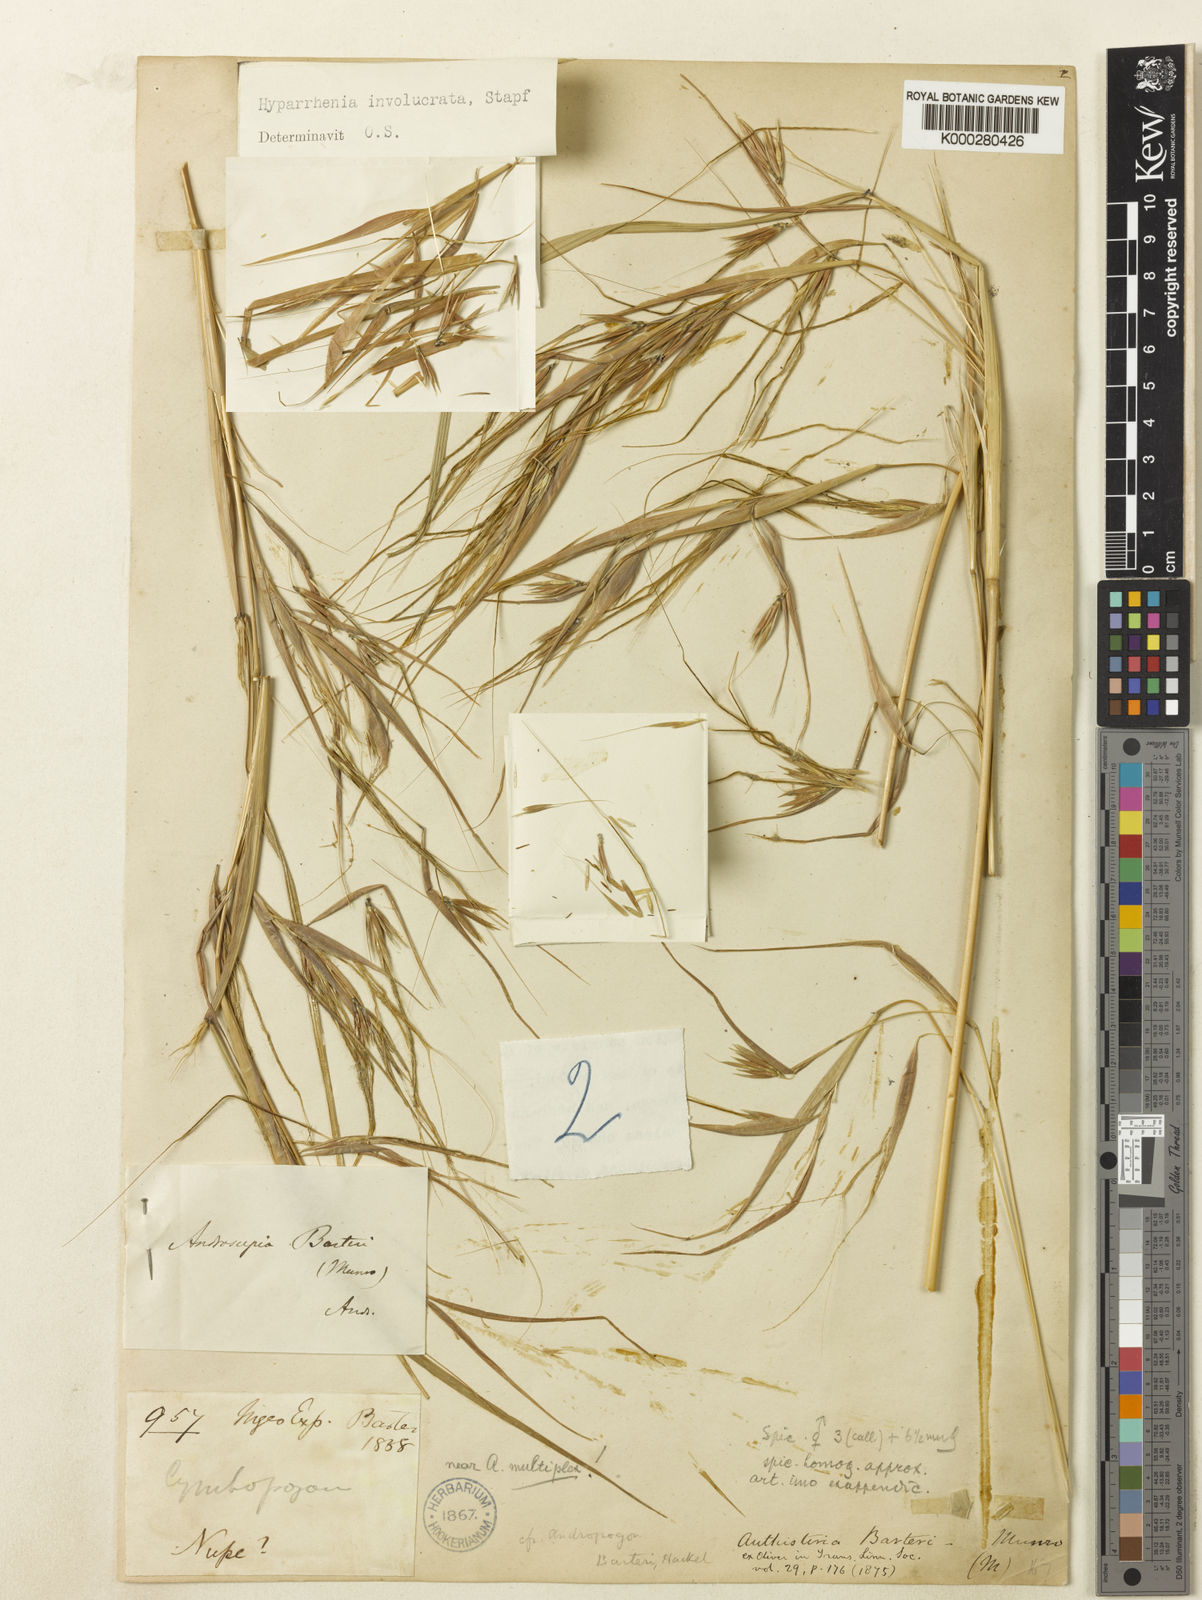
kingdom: Plantae
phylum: Tracheophyta
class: Liliopsida
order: Poales
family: Poaceae
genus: Hyparrhenia
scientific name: Hyparrhenia involucrata
